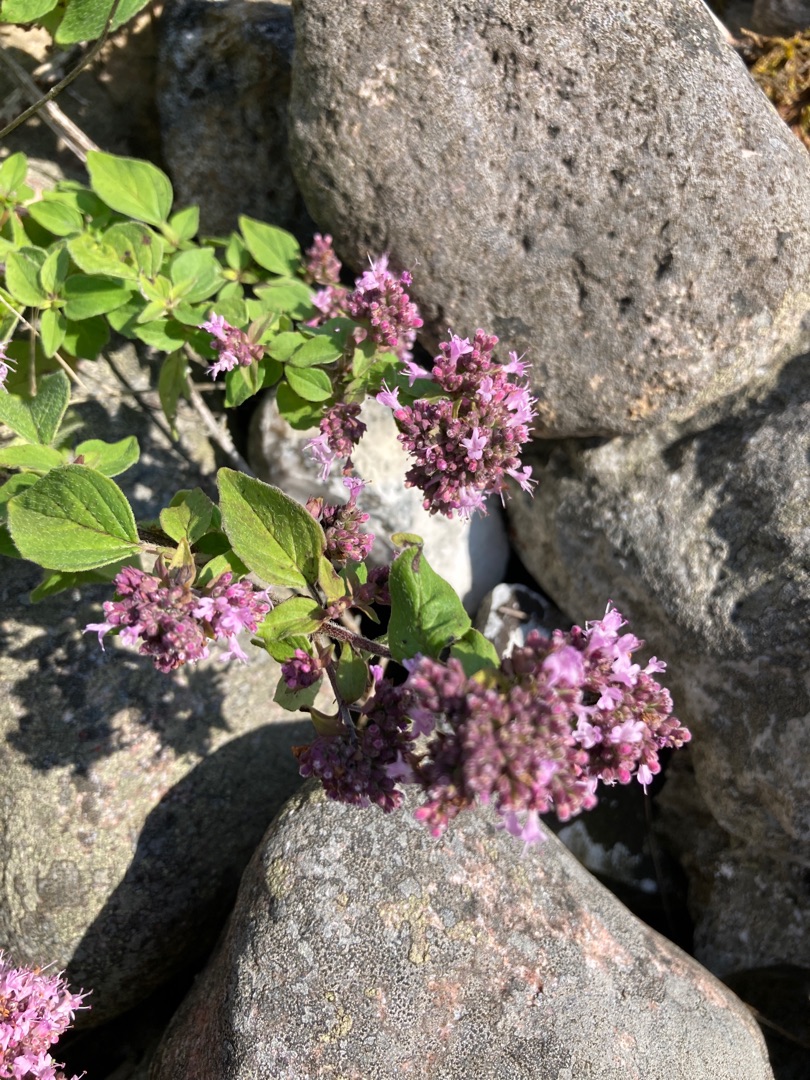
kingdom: Plantae
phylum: Tracheophyta
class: Magnoliopsida
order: Lamiales
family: Lamiaceae
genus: Origanum
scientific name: Origanum vulgare
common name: Merian
